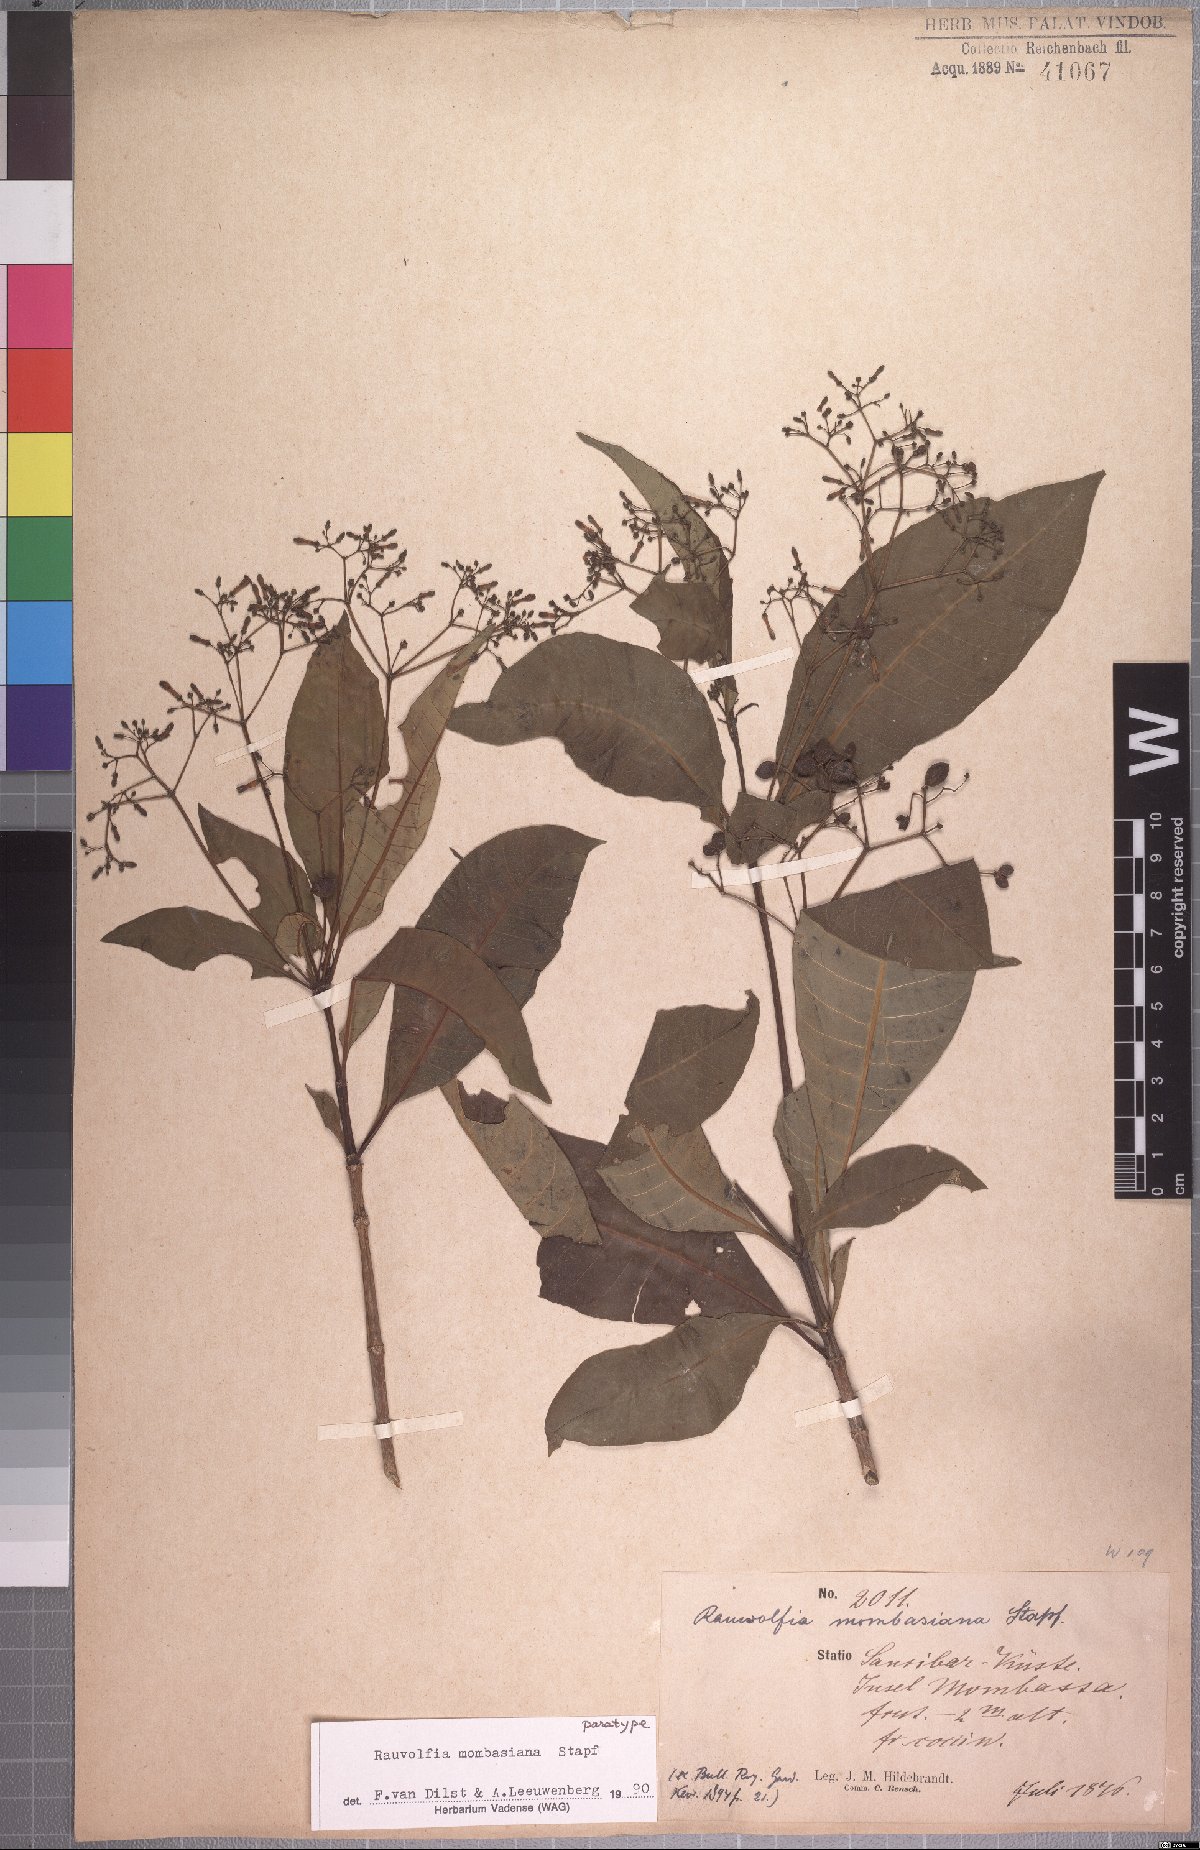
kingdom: Plantae
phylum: Tracheophyta
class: Magnoliopsida
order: Gentianales
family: Apocynaceae
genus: Rauvolfia
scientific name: Rauvolfia mombasiana
